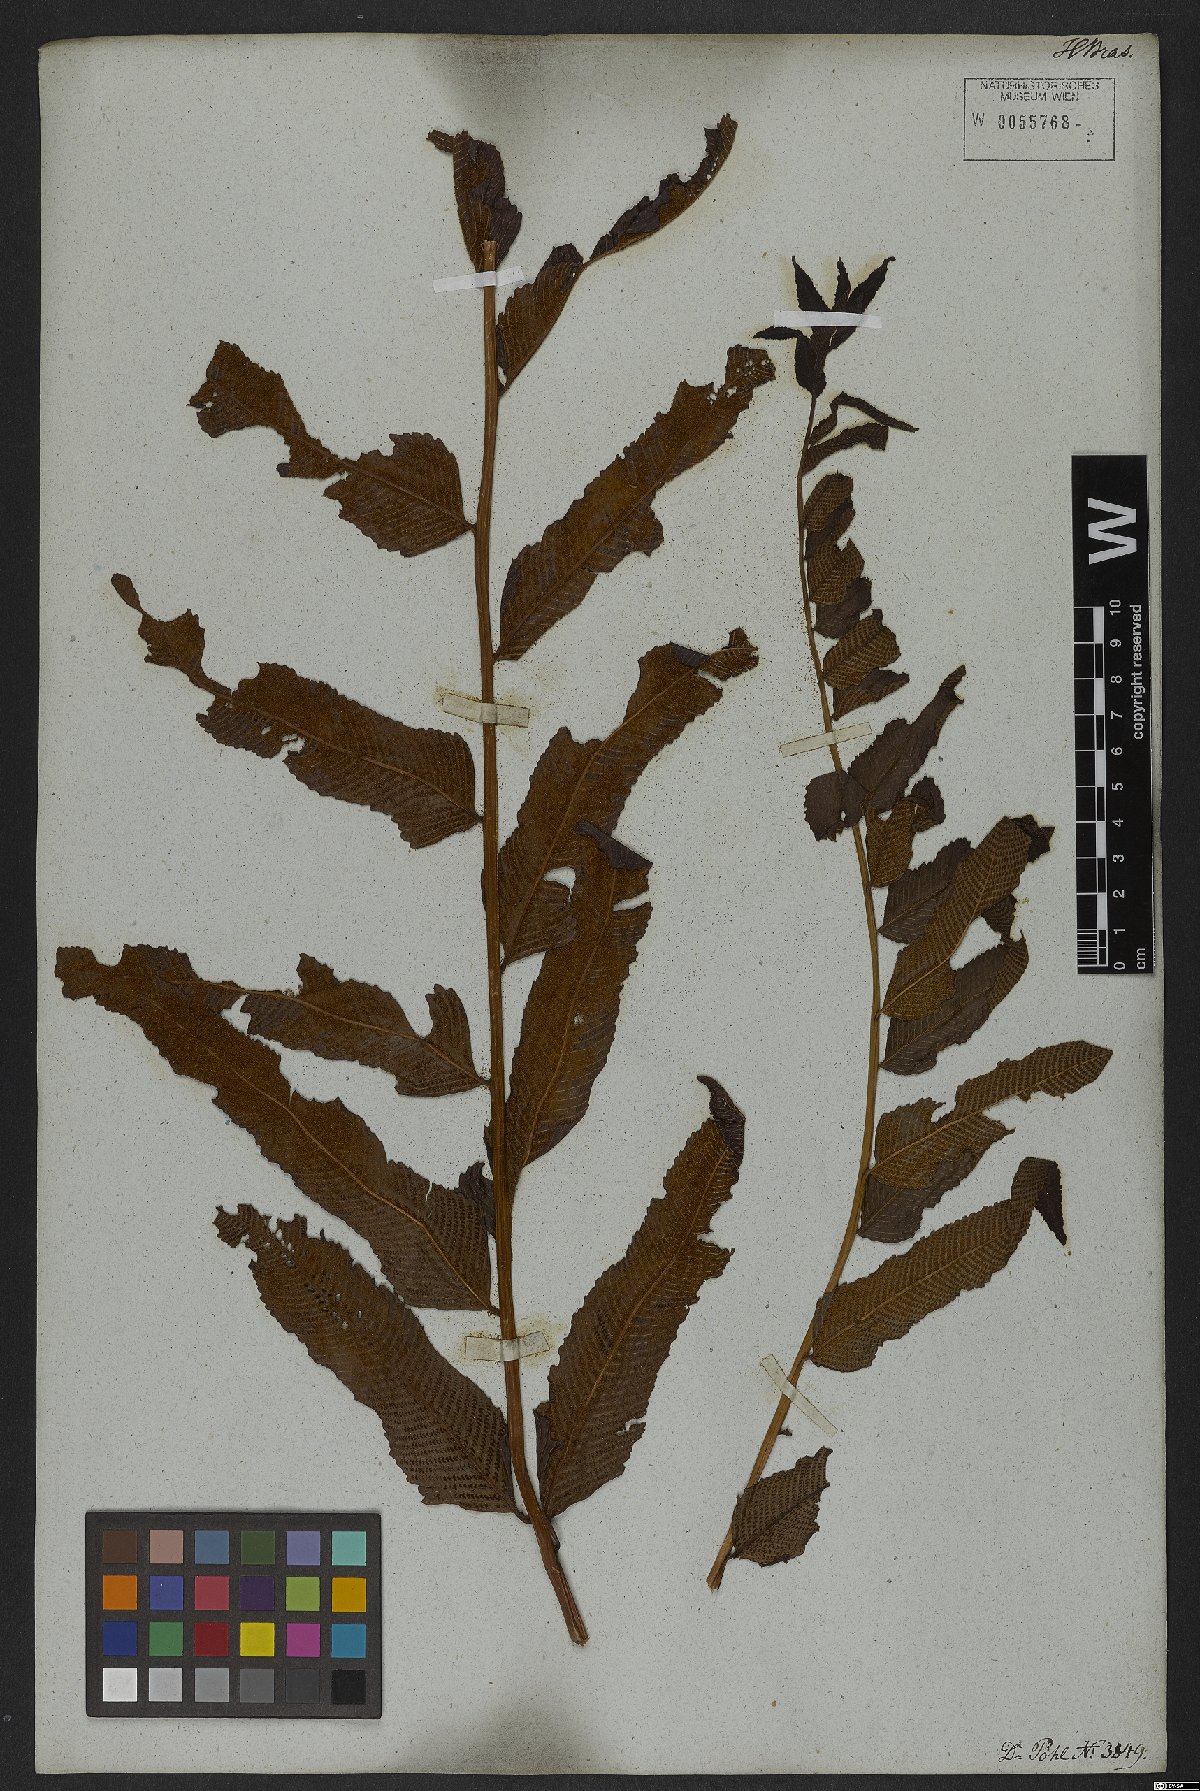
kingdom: Plantae
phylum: Tracheophyta
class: Polypodiopsida
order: Polypodiales
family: Thelypteridaceae
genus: Meniscium
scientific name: Meniscium serratum
